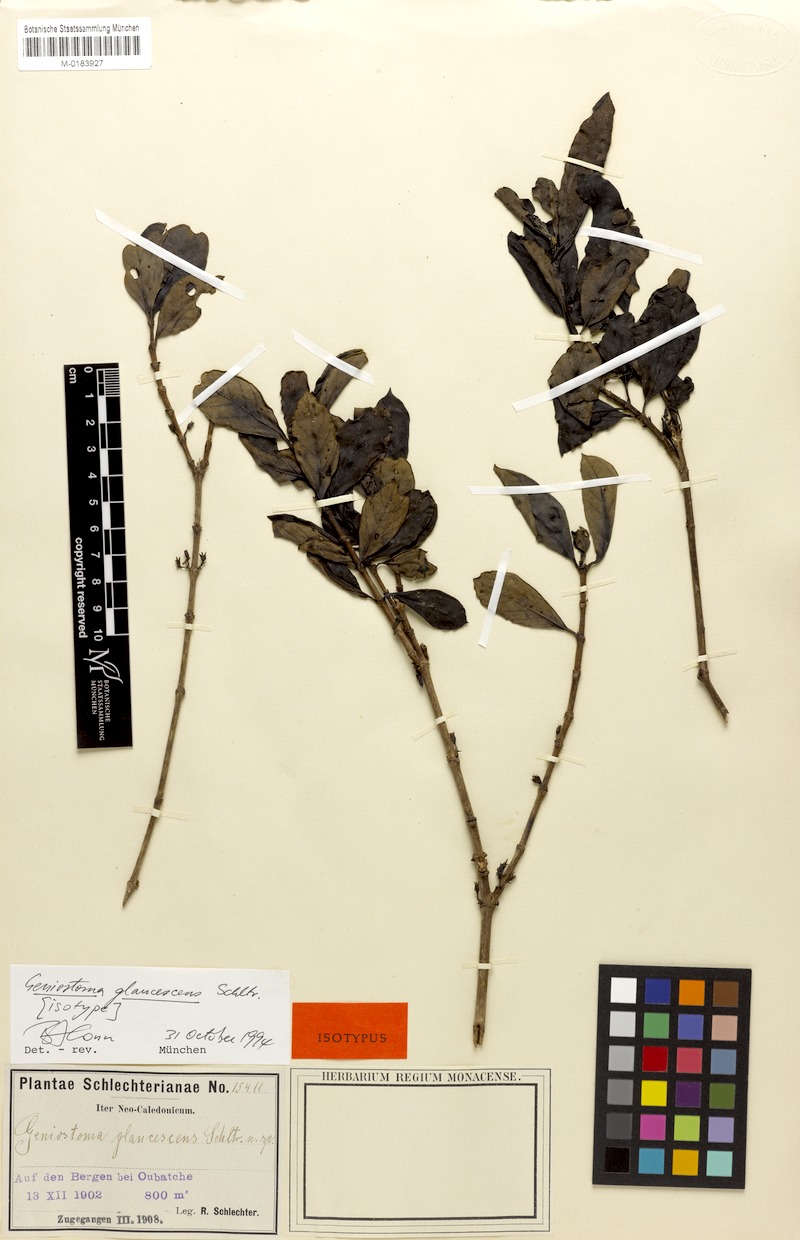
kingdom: Plantae
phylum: Tracheophyta
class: Magnoliopsida
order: Gentianales
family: Loganiaceae
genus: Geniostoma
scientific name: Geniostoma glaucescens
